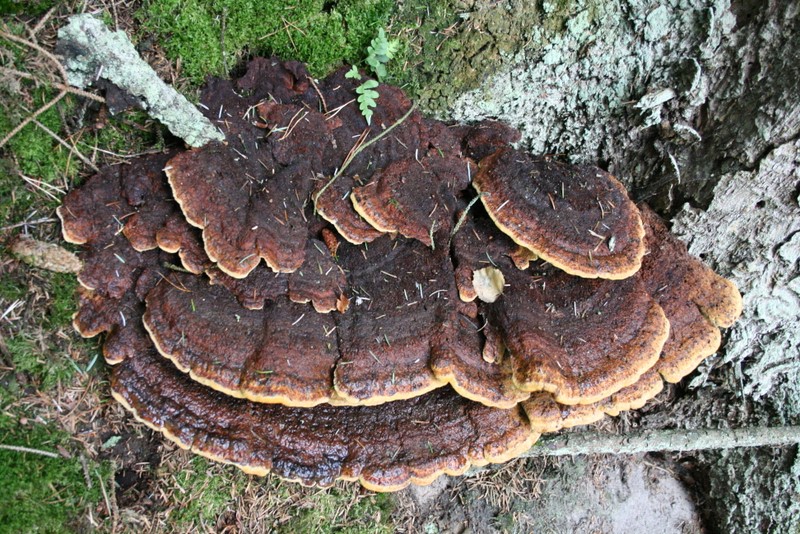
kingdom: Fungi
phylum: Basidiomycota
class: Agaricomycetes
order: Polyporales
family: Laetiporaceae
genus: Phaeolus
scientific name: Phaeolus schweinitzii
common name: brunporesvamp
